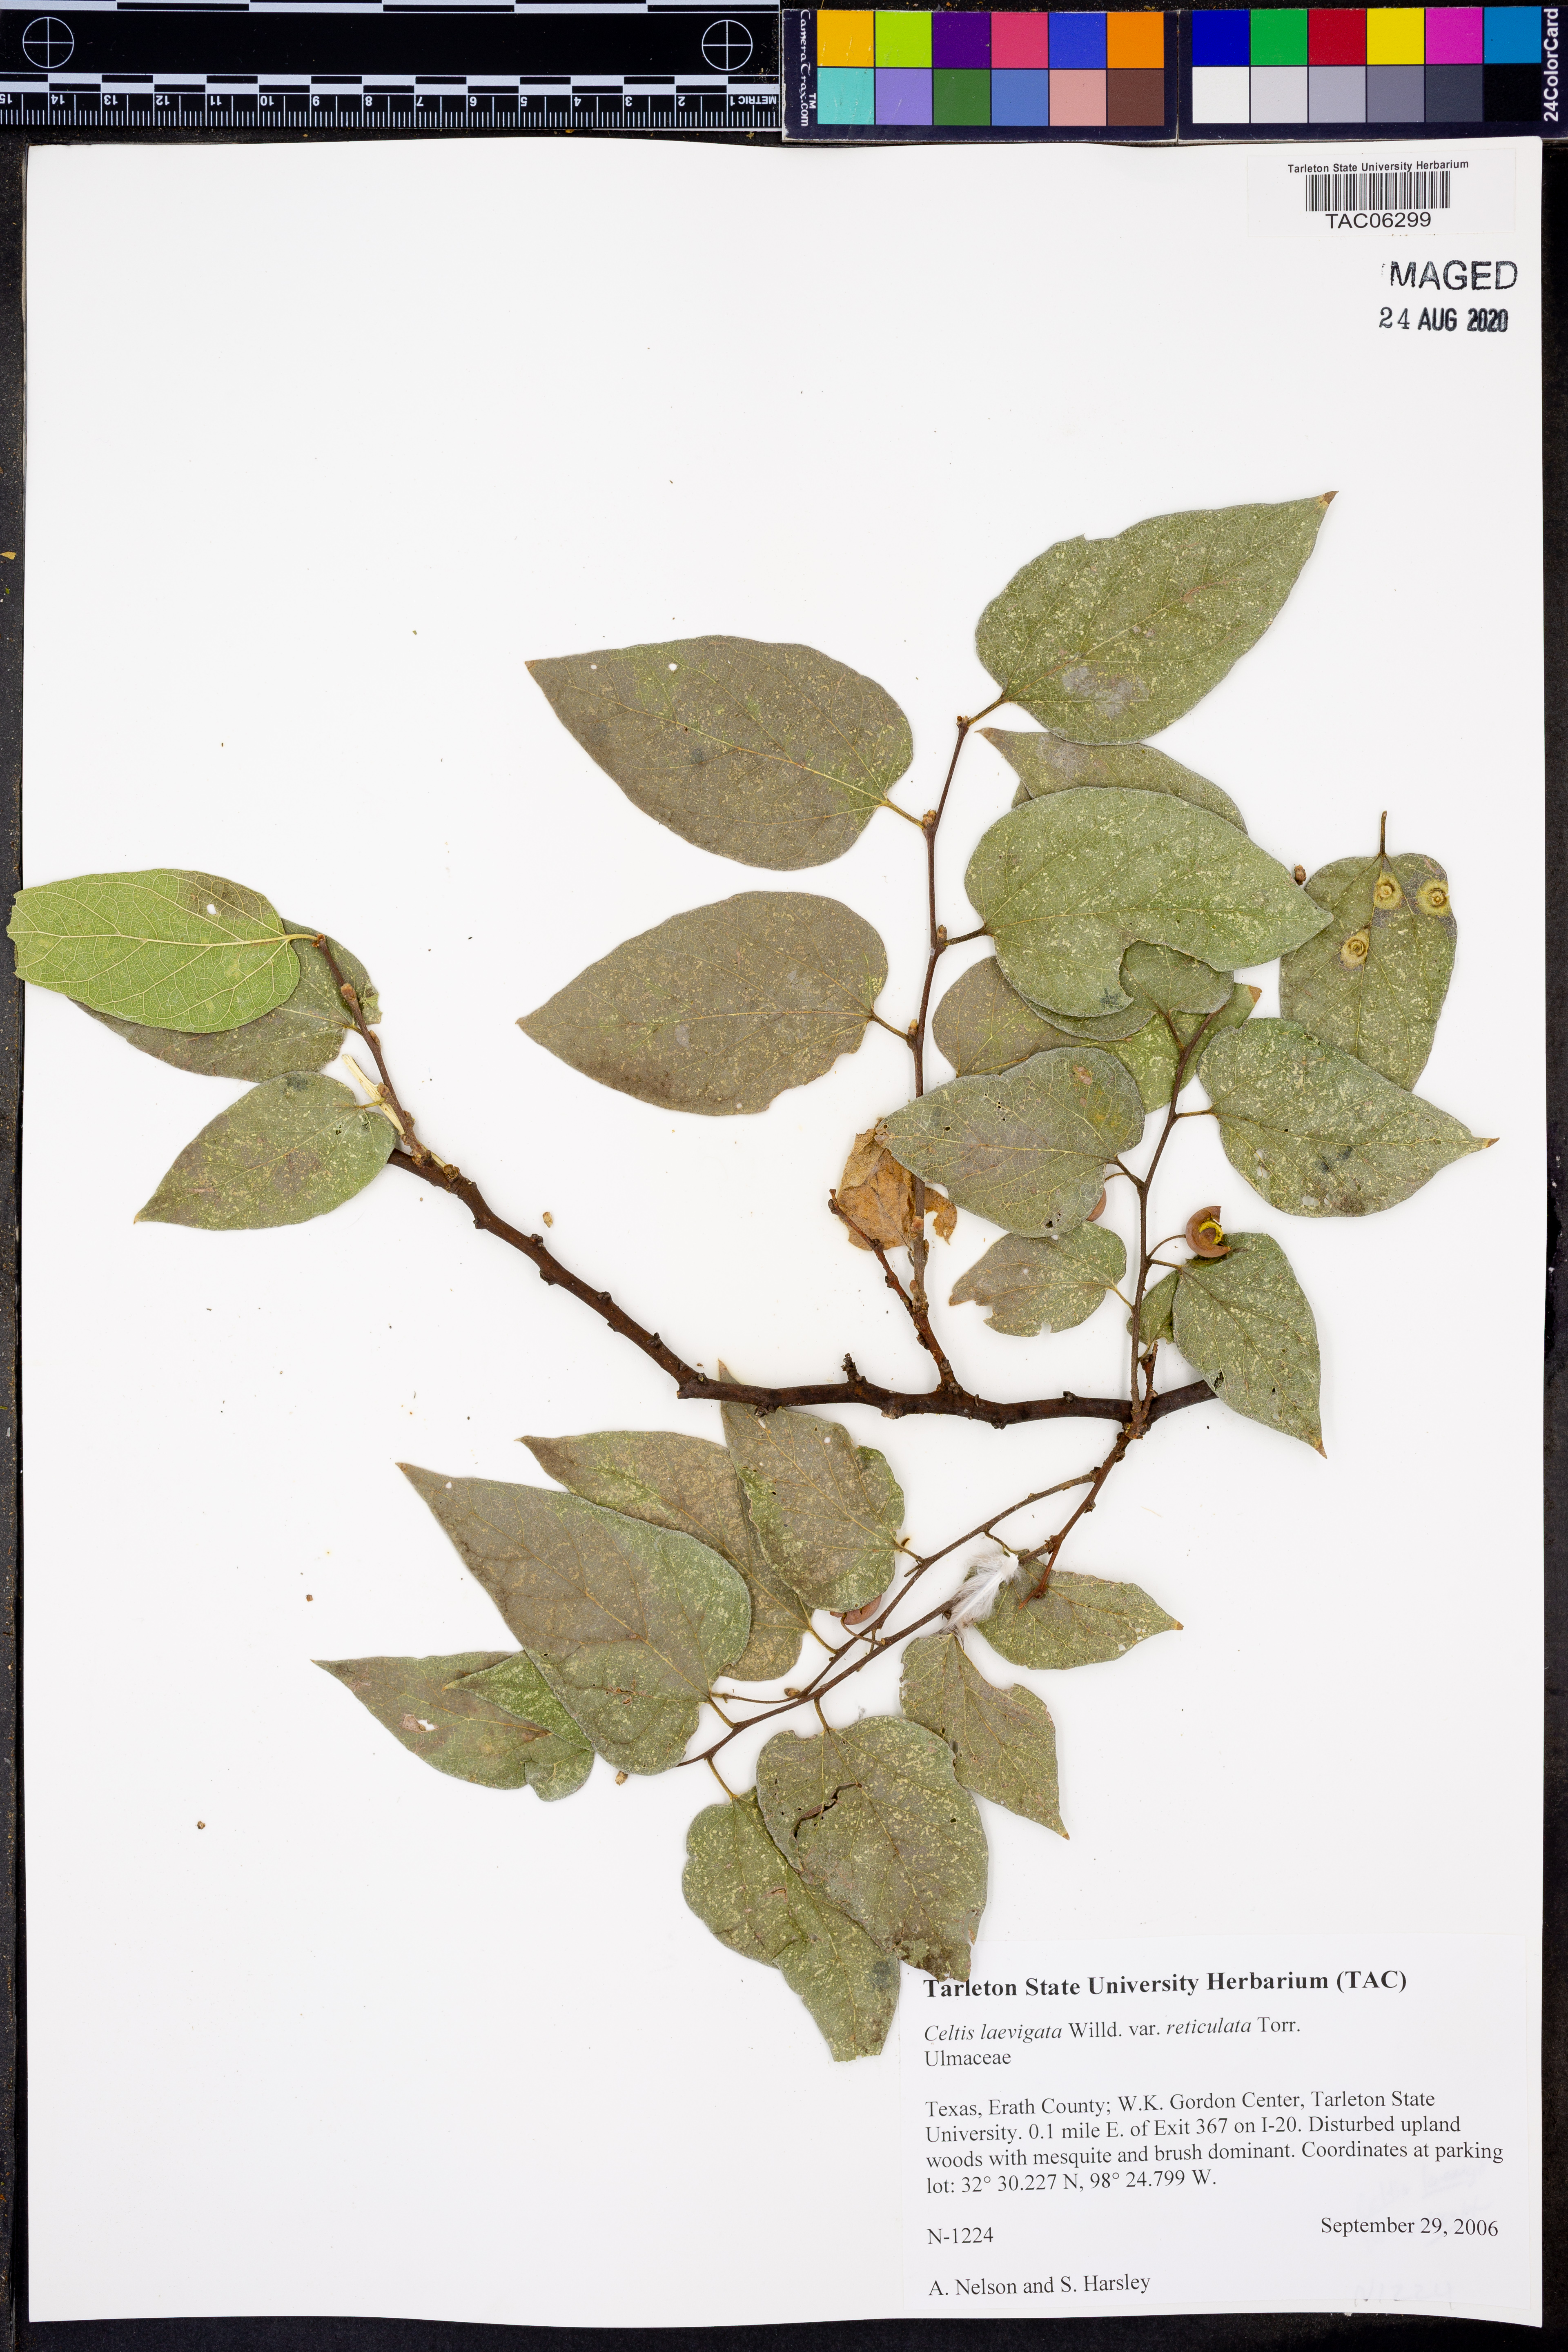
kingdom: Plantae
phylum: Tracheophyta
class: Magnoliopsida
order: Rosales
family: Cannabaceae
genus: Celtis
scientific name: Celtis reticulata
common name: Netleaf hackberry
